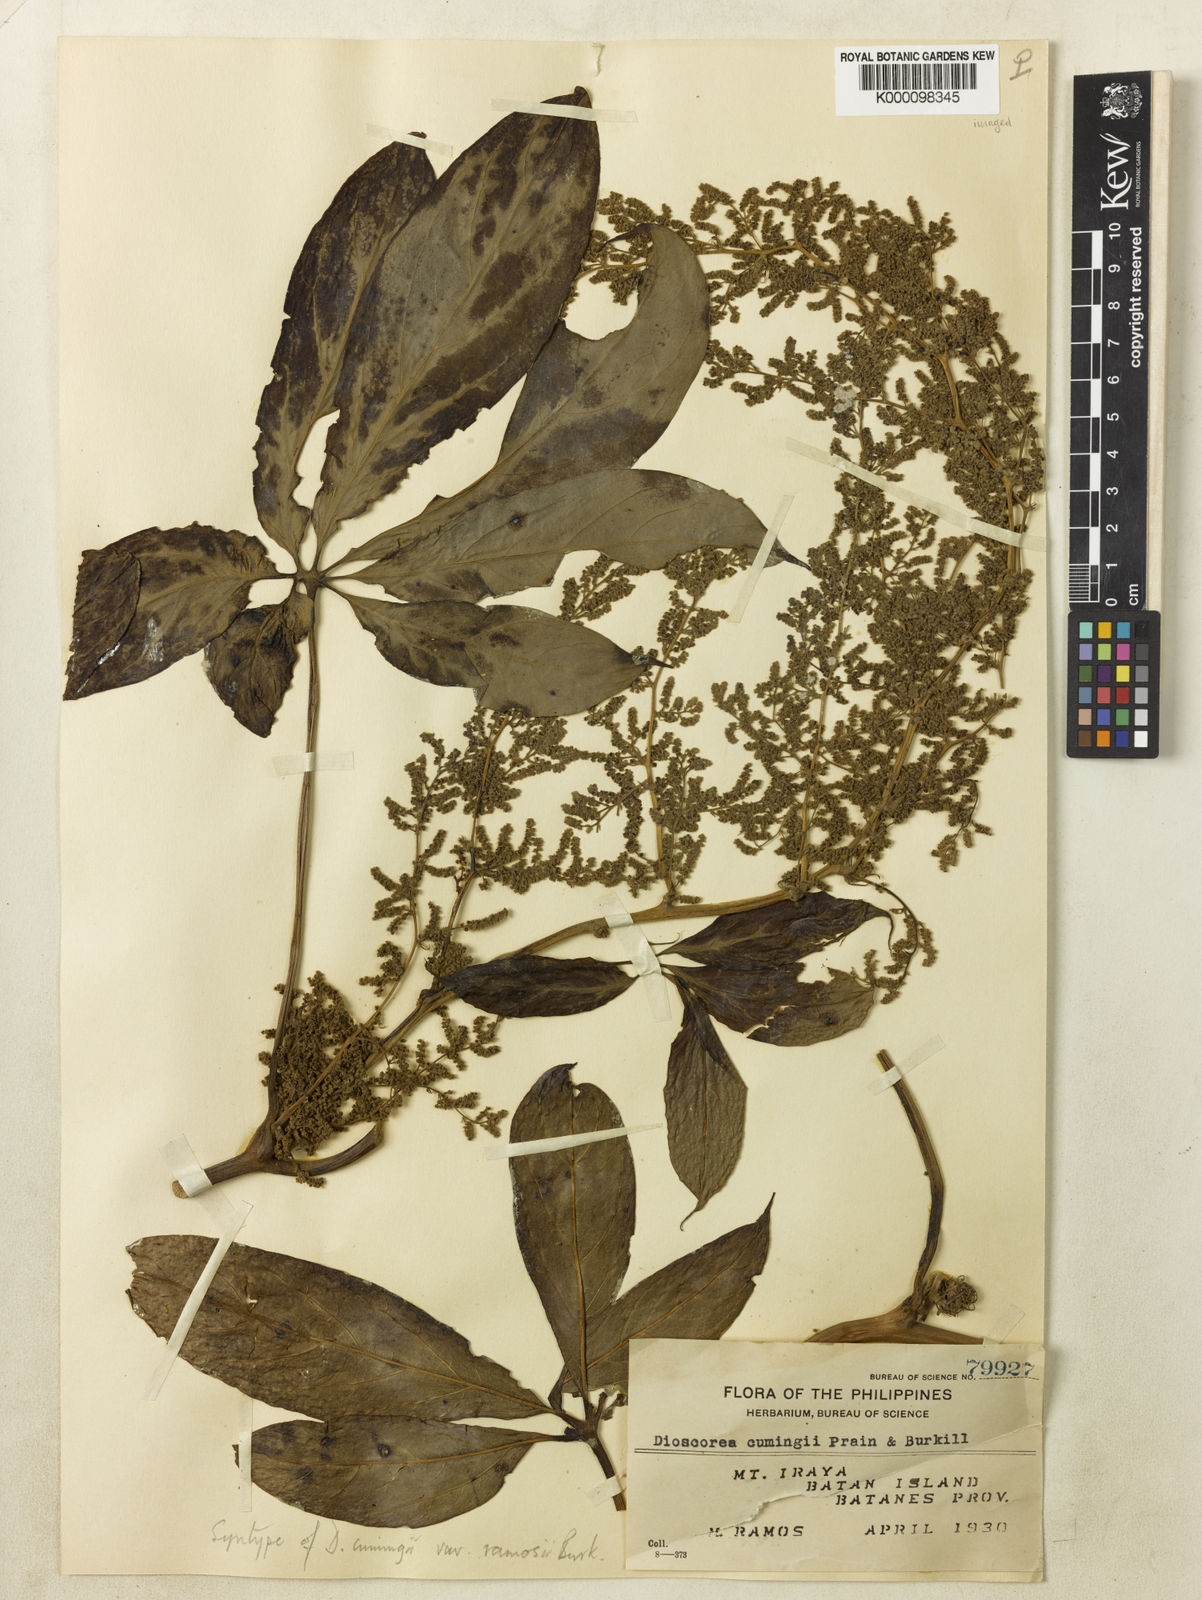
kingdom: Plantae
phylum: Tracheophyta
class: Liliopsida
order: Dioscoreales
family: Dioscoreaceae
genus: Dioscorea
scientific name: Dioscorea cumingii
